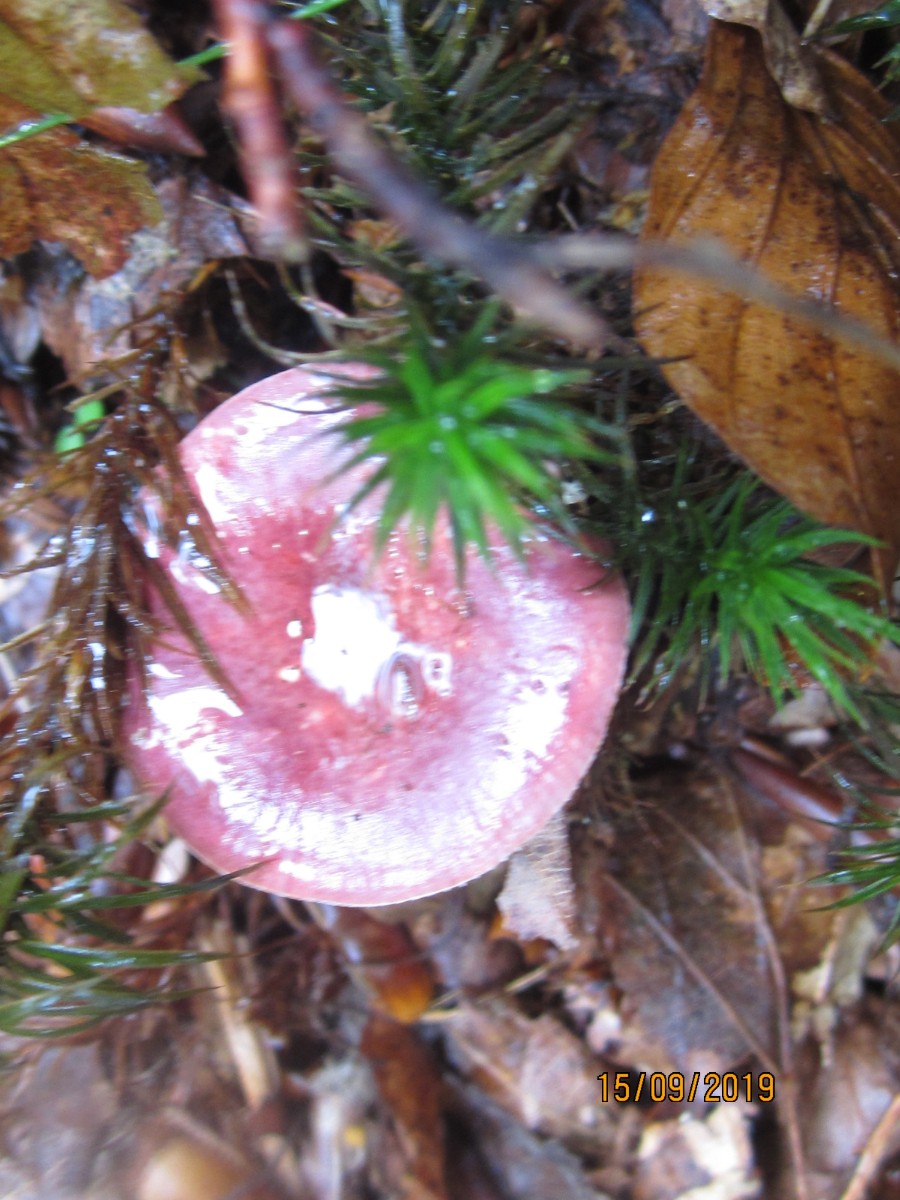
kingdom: Fungi
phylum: Basidiomycota
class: Agaricomycetes
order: Russulales
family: Russulaceae
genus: Russula
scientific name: Russula queletii
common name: Quélets skørhat
